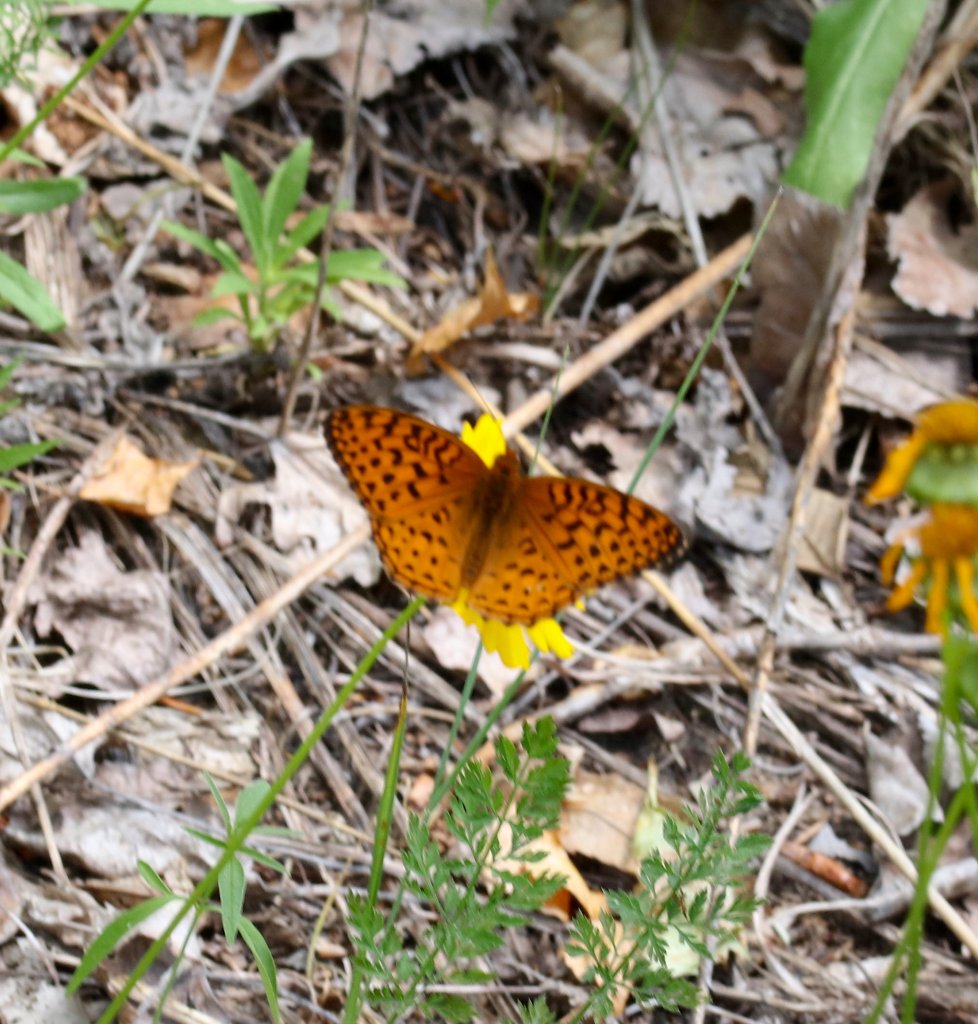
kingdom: Animalia
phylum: Arthropoda
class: Insecta
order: Lepidoptera
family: Nymphalidae
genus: Speyeria
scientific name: Speyeria aphrodite
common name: Aphrodite Fritillary
